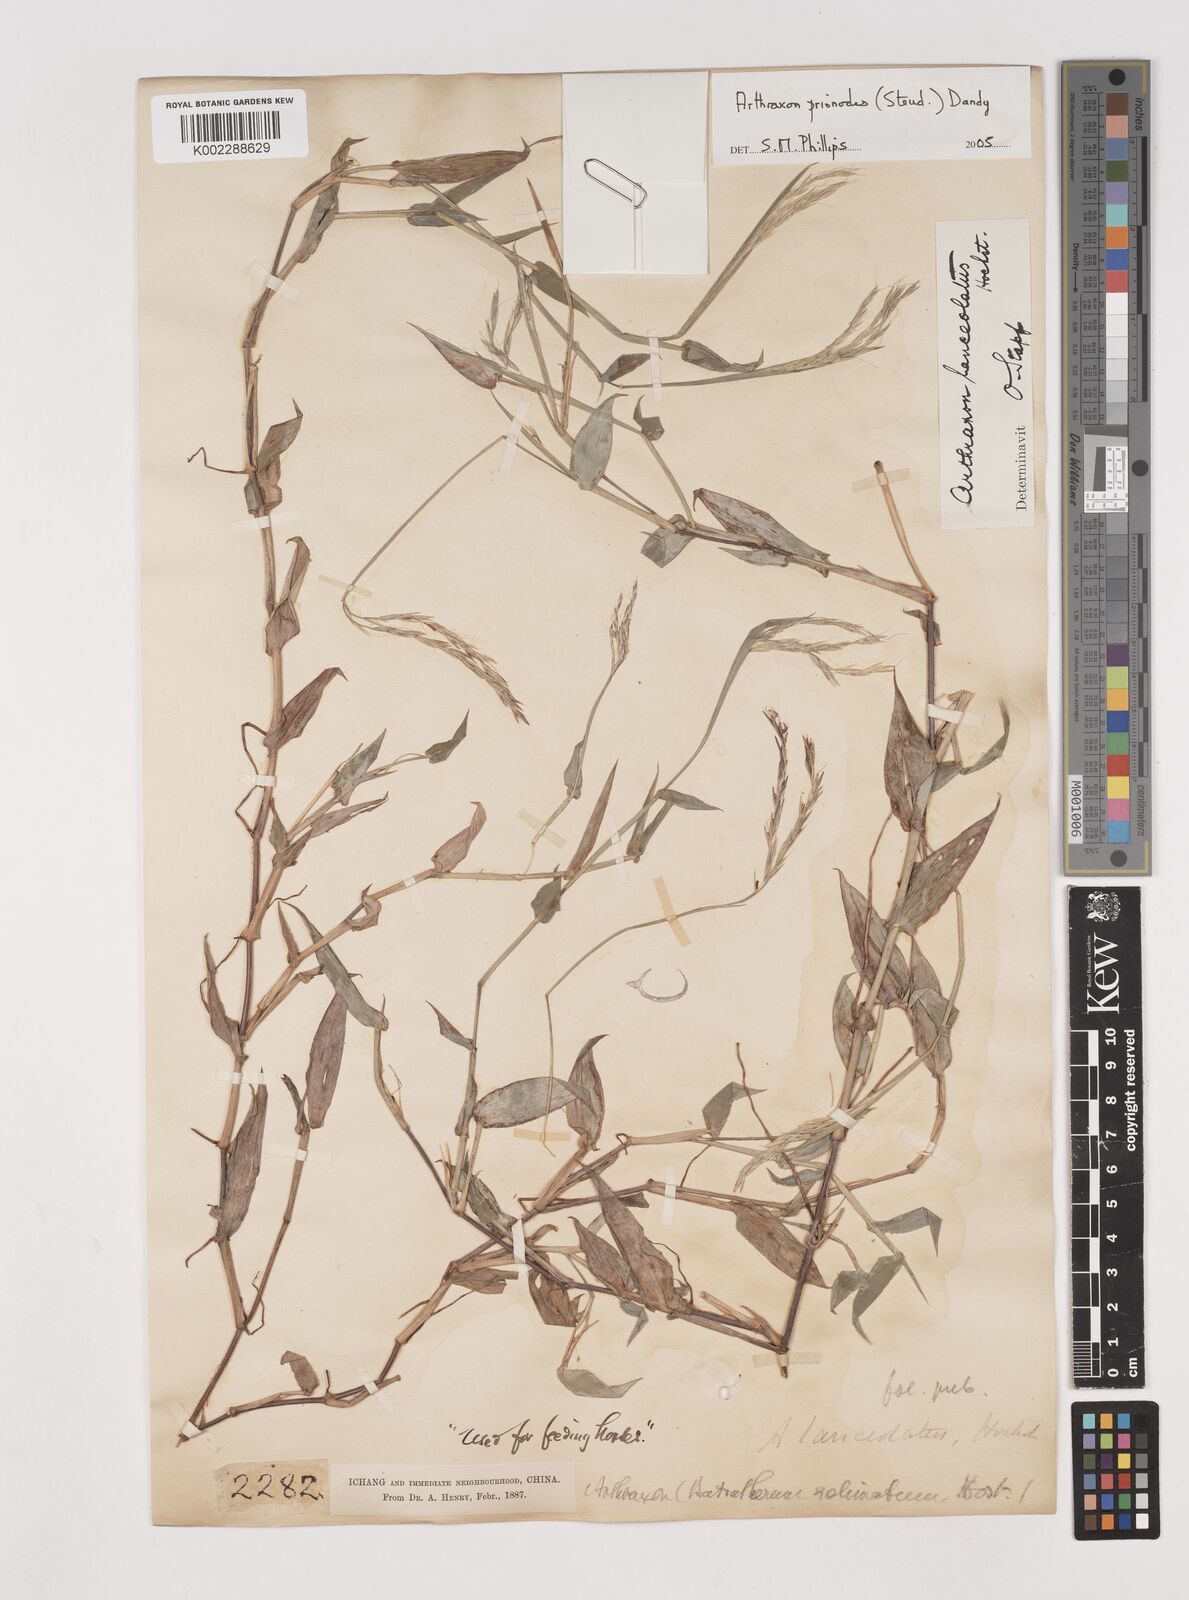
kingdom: Plantae
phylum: Tracheophyta
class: Liliopsida
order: Poales
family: Poaceae
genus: Arthraxon
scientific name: Arthraxon prionodes
